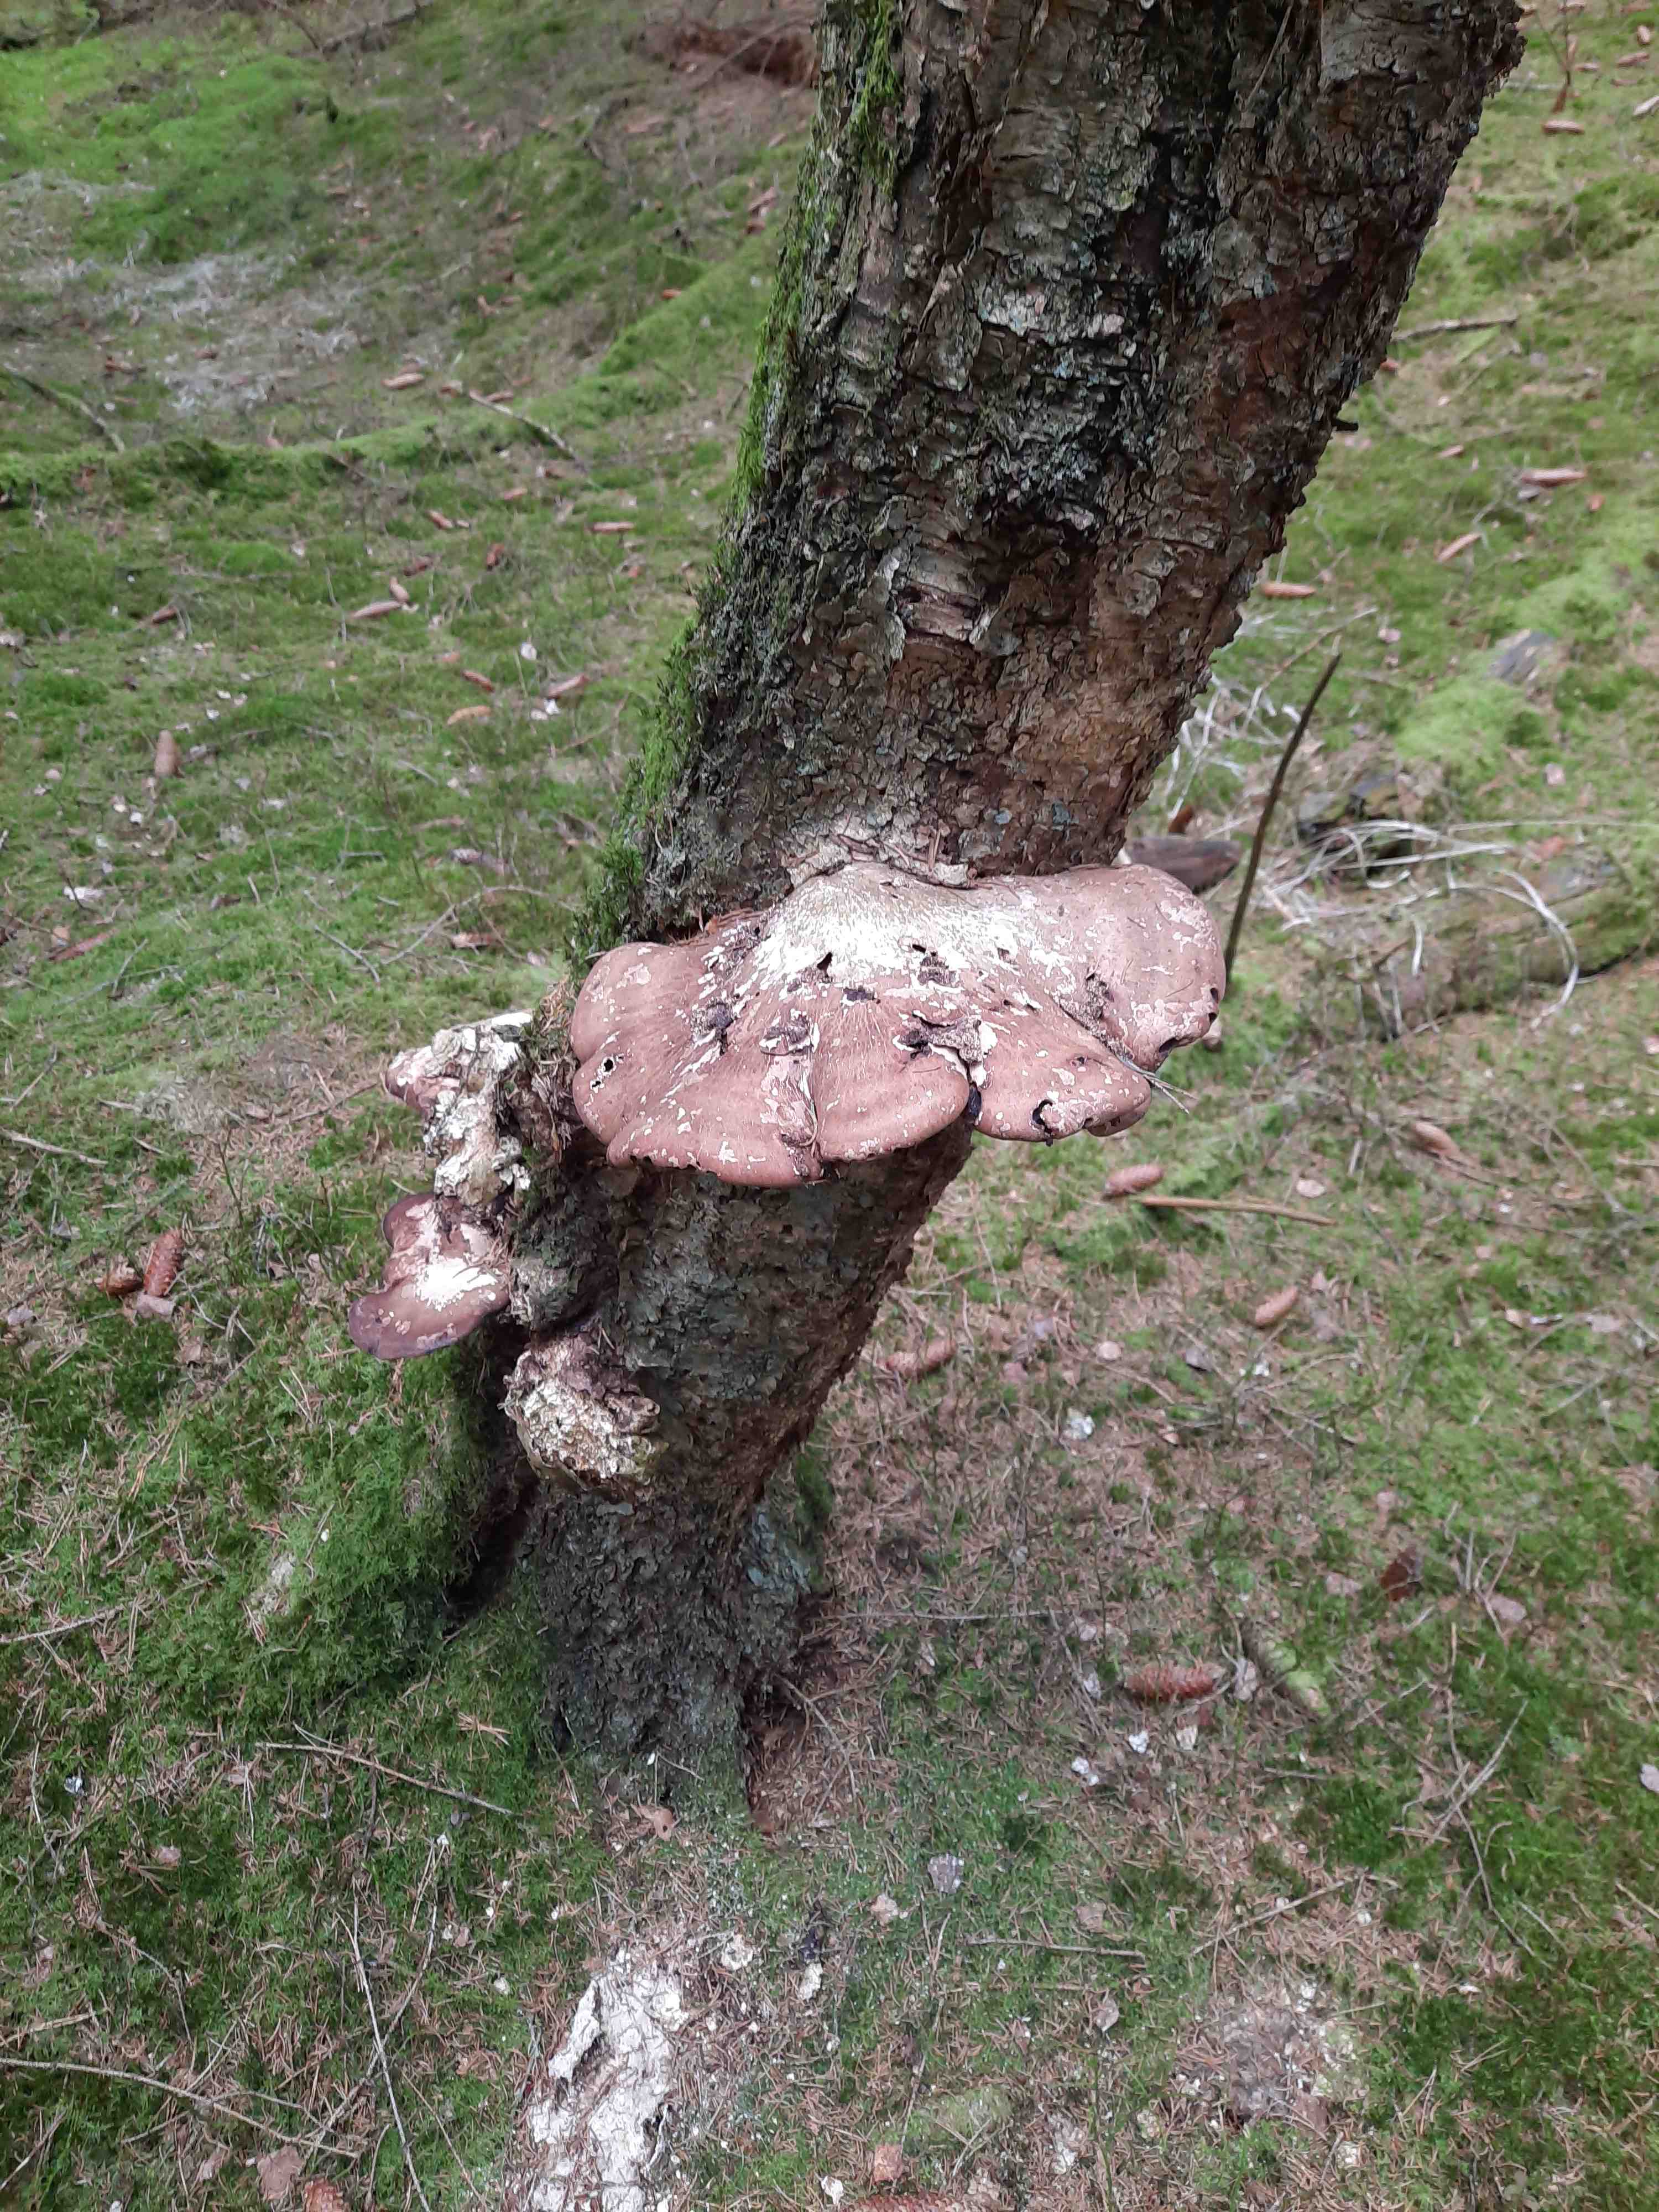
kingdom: Fungi
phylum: Basidiomycota
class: Agaricomycetes
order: Polyporales
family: Fomitopsidaceae
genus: Fomitopsis
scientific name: Fomitopsis betulina
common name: birkeporesvamp
